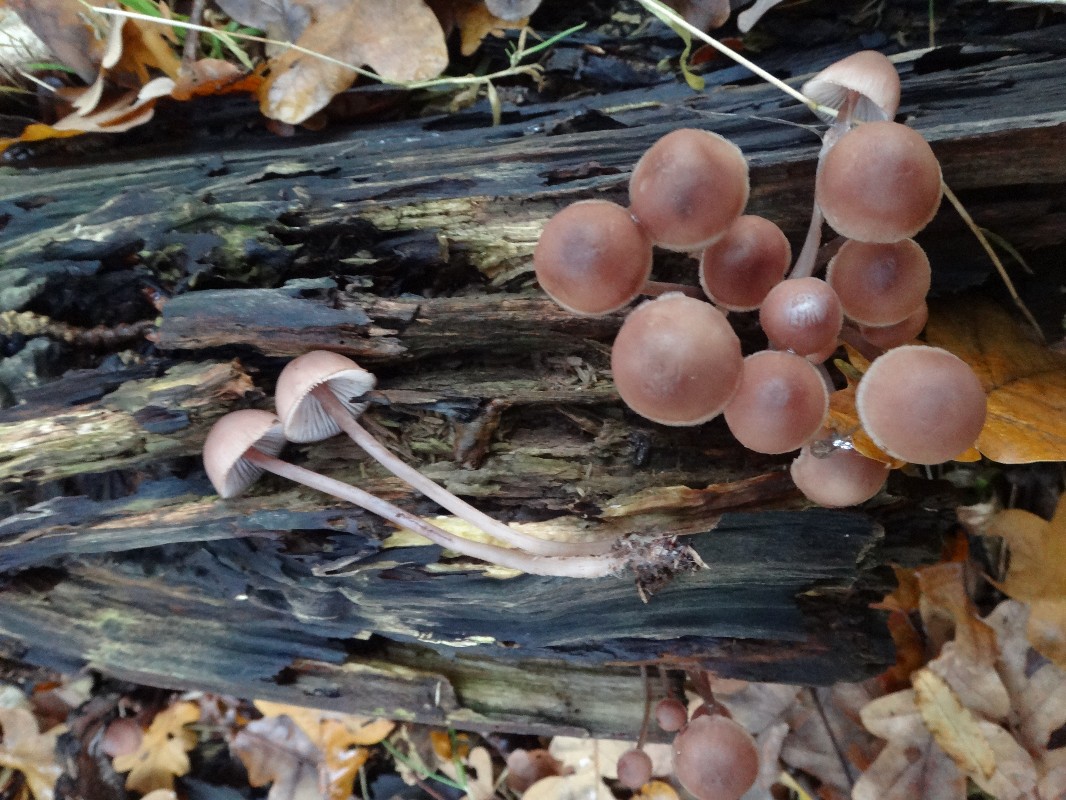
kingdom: Fungi
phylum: Basidiomycota
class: Agaricomycetes
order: Agaricales
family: Mycenaceae
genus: Mycena
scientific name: Mycena haematopus
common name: blødende huesvamp
